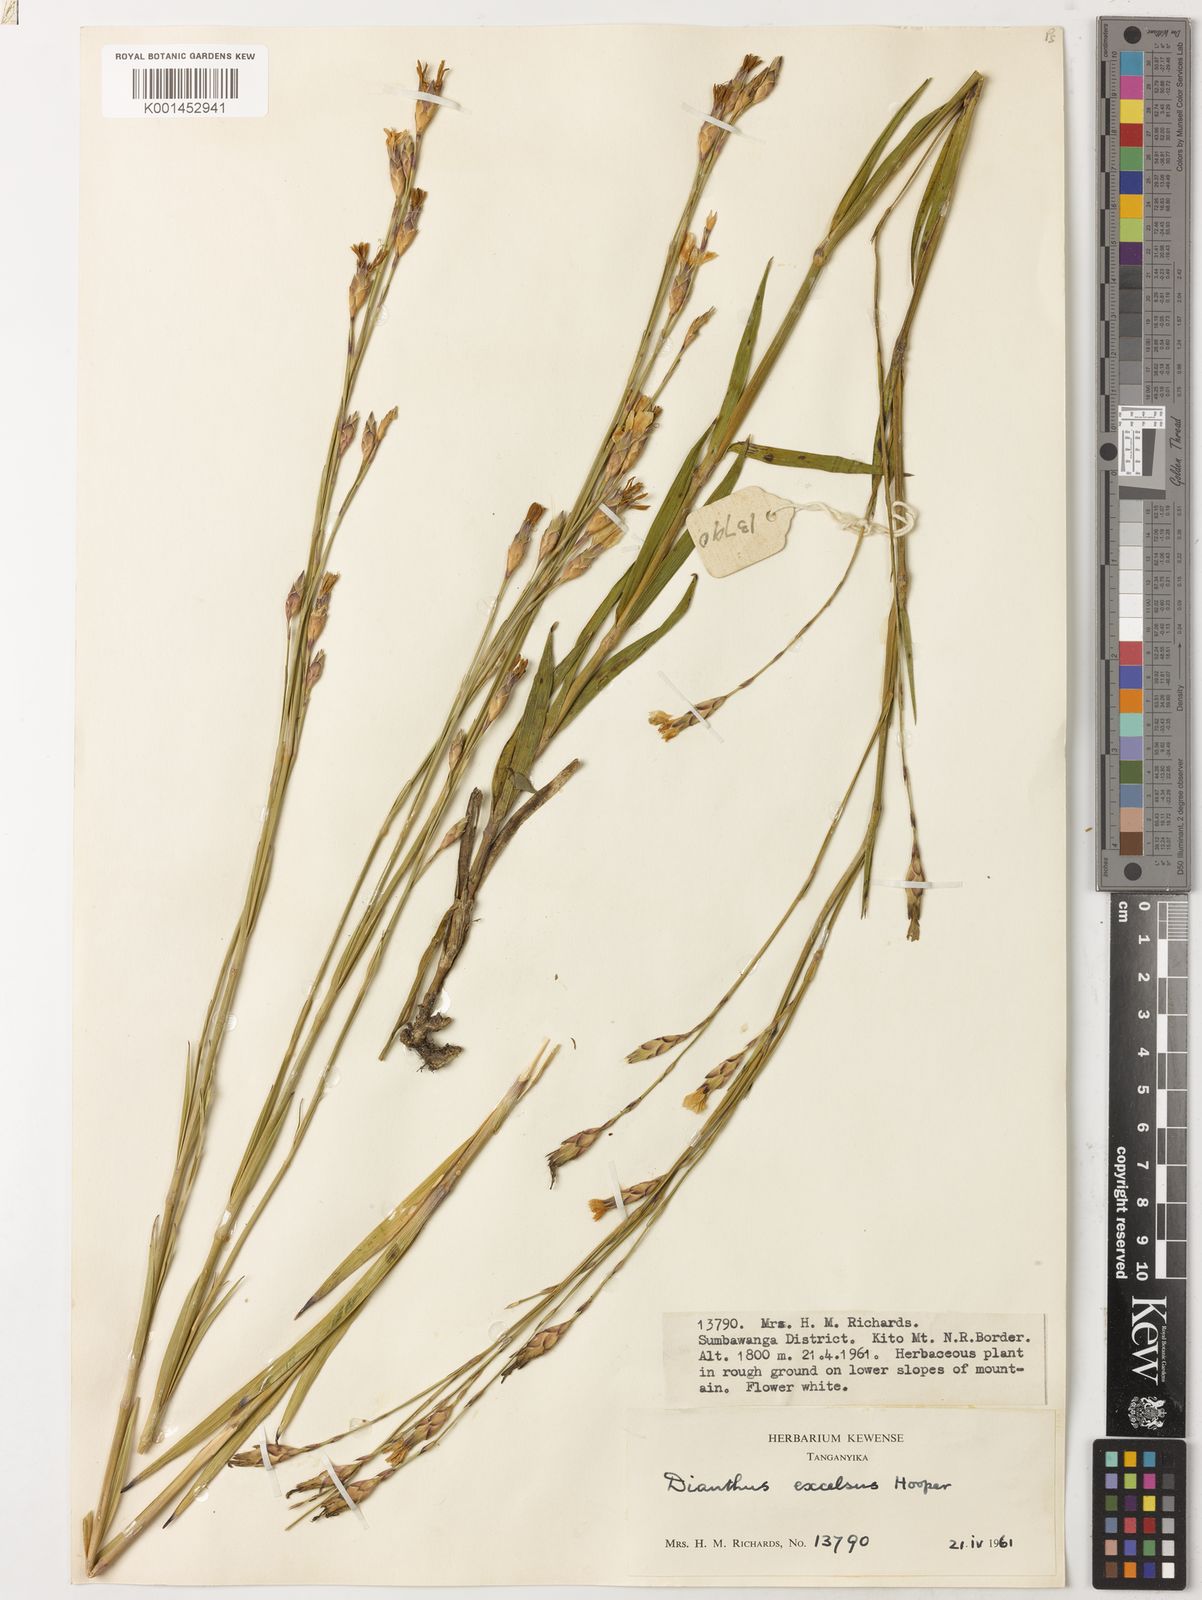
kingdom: Plantae
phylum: Tracheophyta
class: Magnoliopsida
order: Caryophyllales
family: Caryophyllaceae
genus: Dianthus
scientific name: Dianthus excelsus
